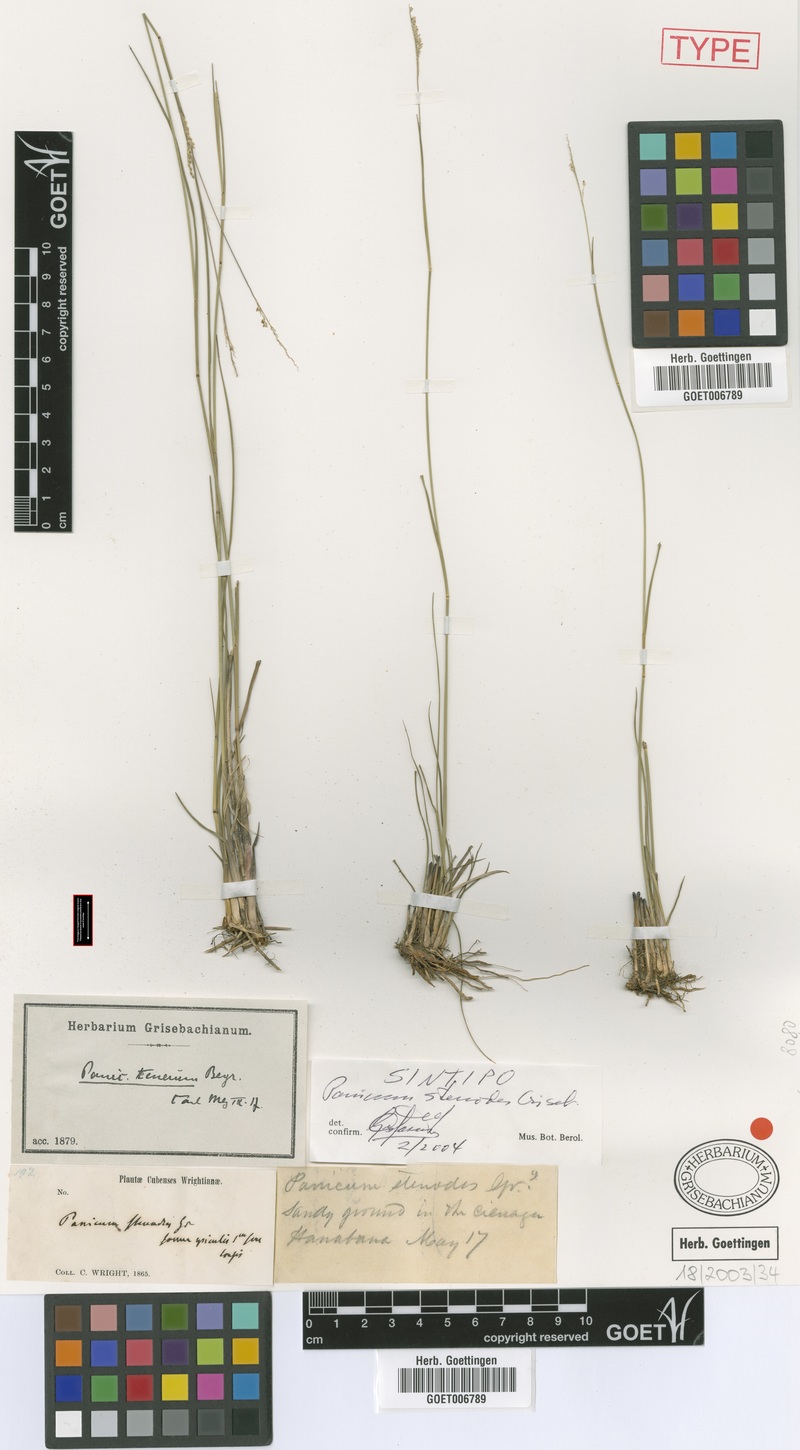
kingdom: Plantae
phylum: Tracheophyta
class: Liliopsida
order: Poales
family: Poaceae
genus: Coleataenia
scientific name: Coleataenia stenodes
